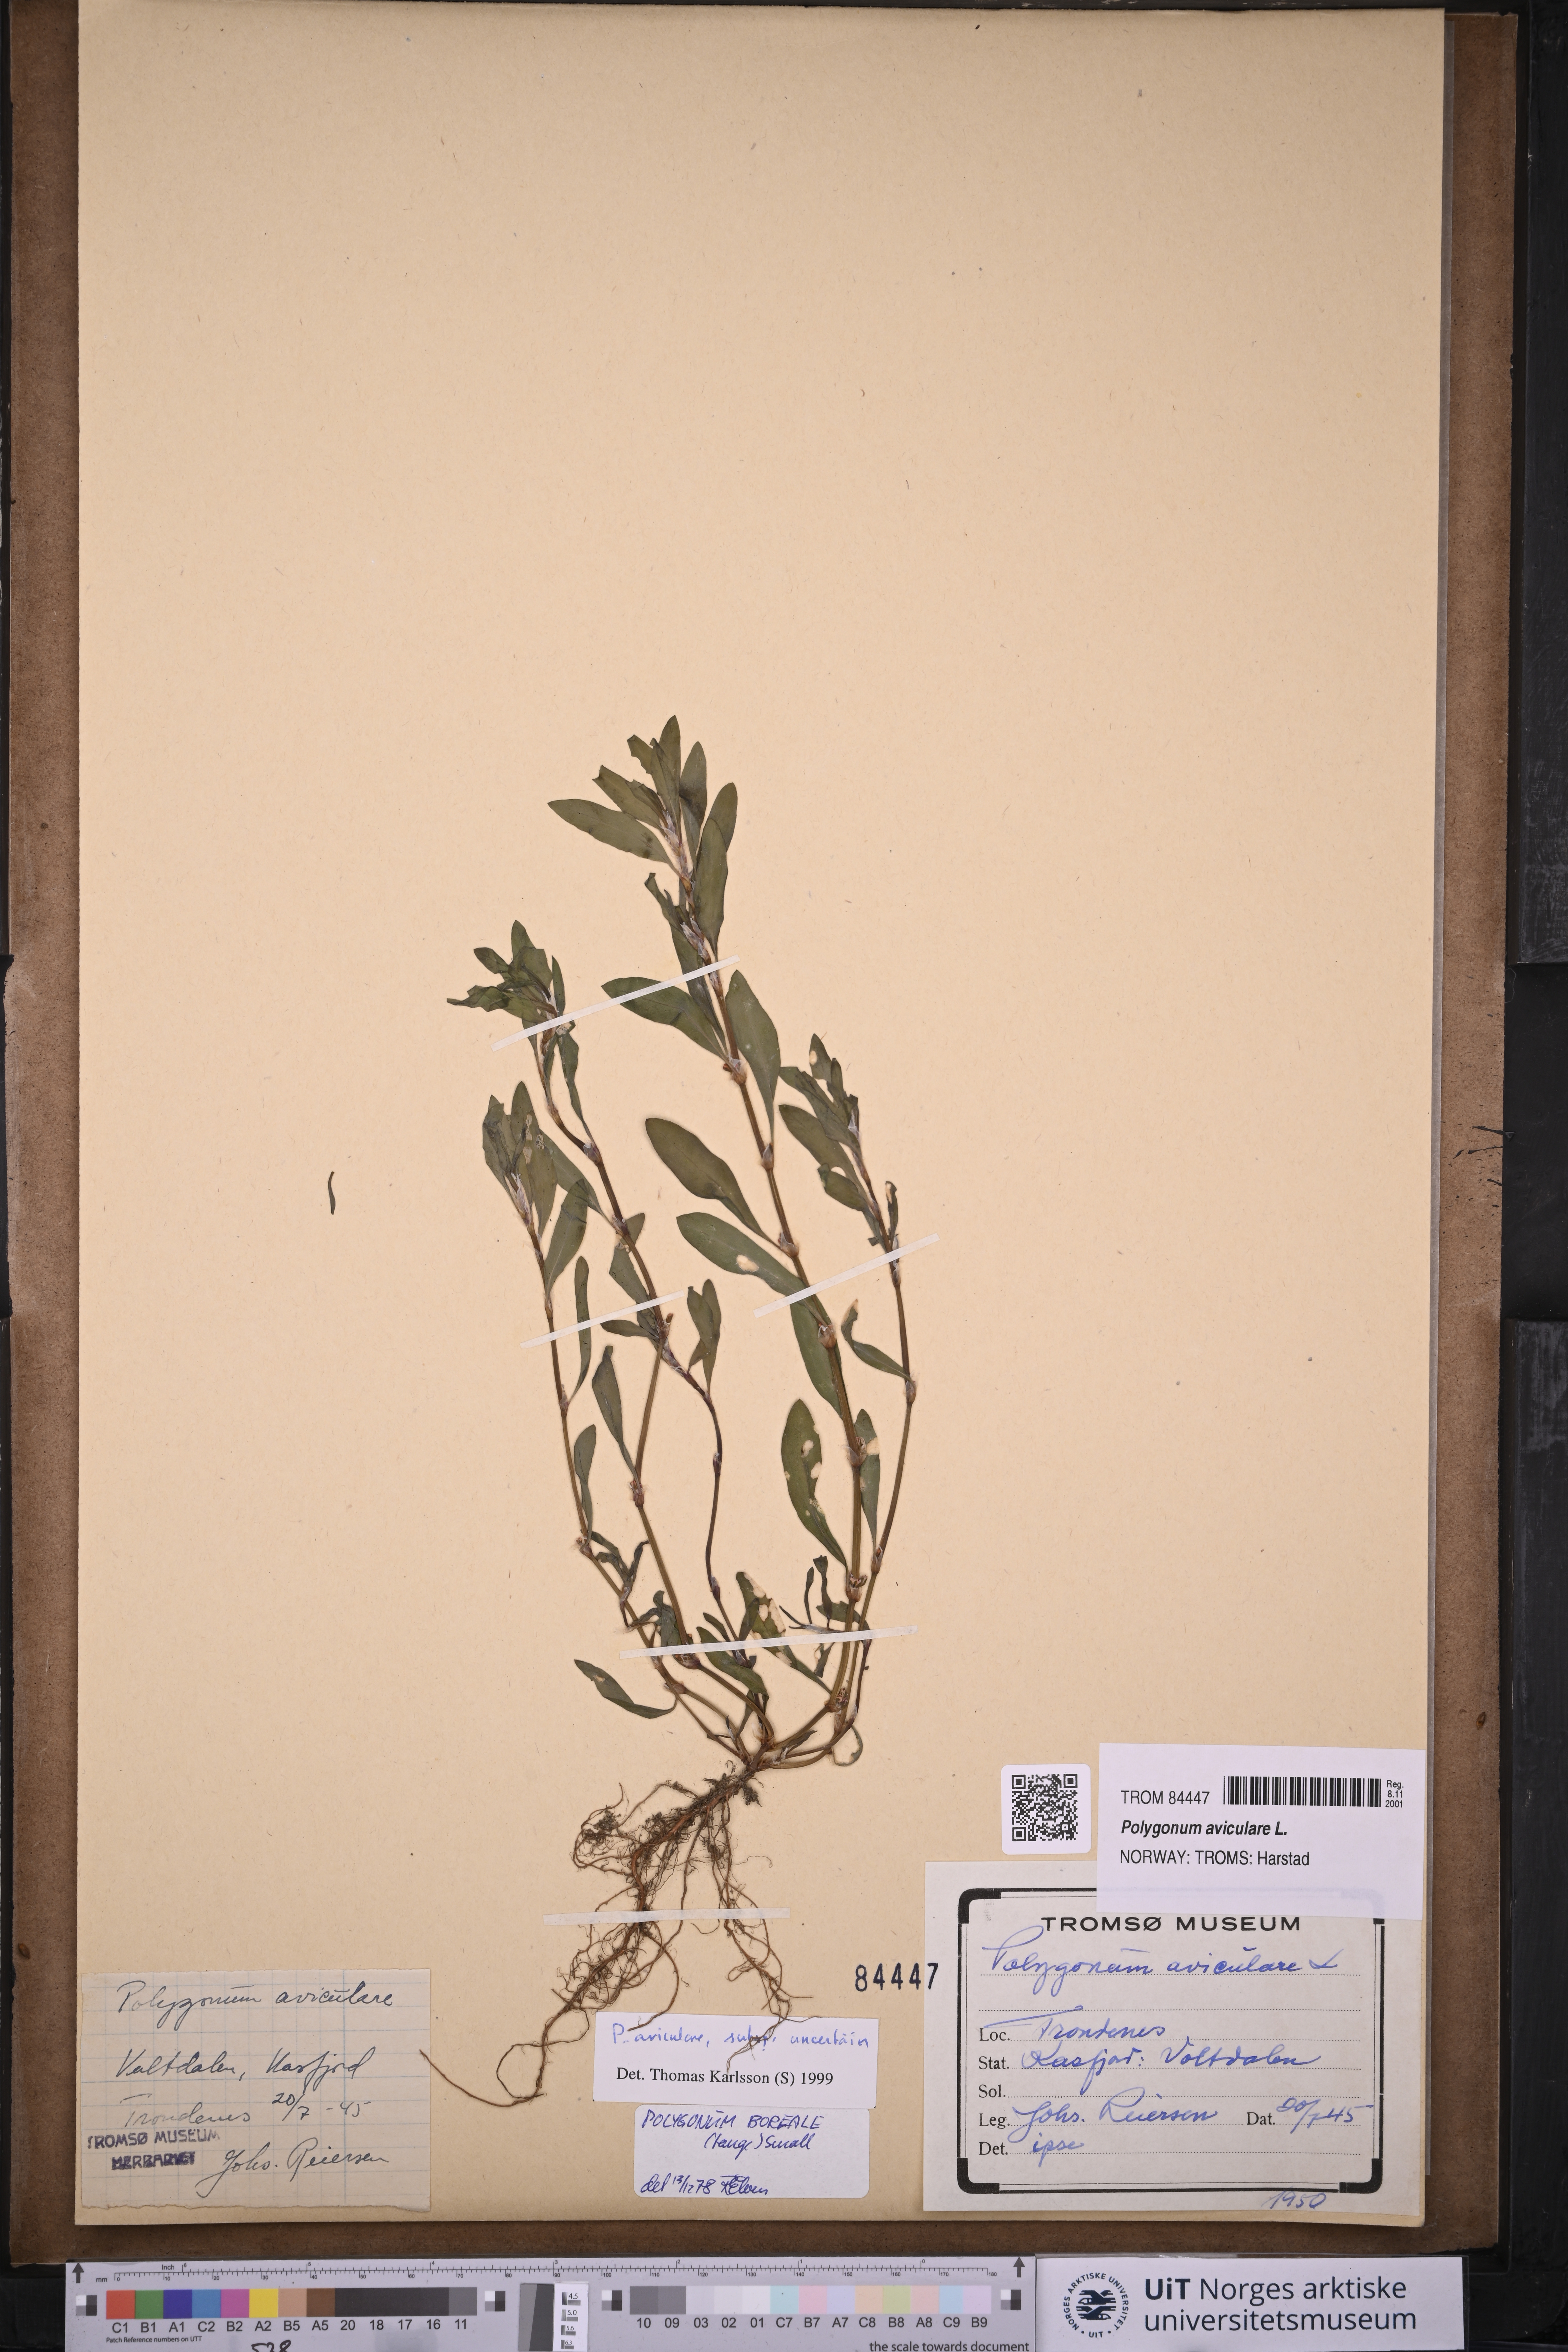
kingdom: Plantae
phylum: Tracheophyta
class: Magnoliopsida
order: Caryophyllales
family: Polygonaceae
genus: Polygonum
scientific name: Polygonum aviculare
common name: Prostrate knotweed
